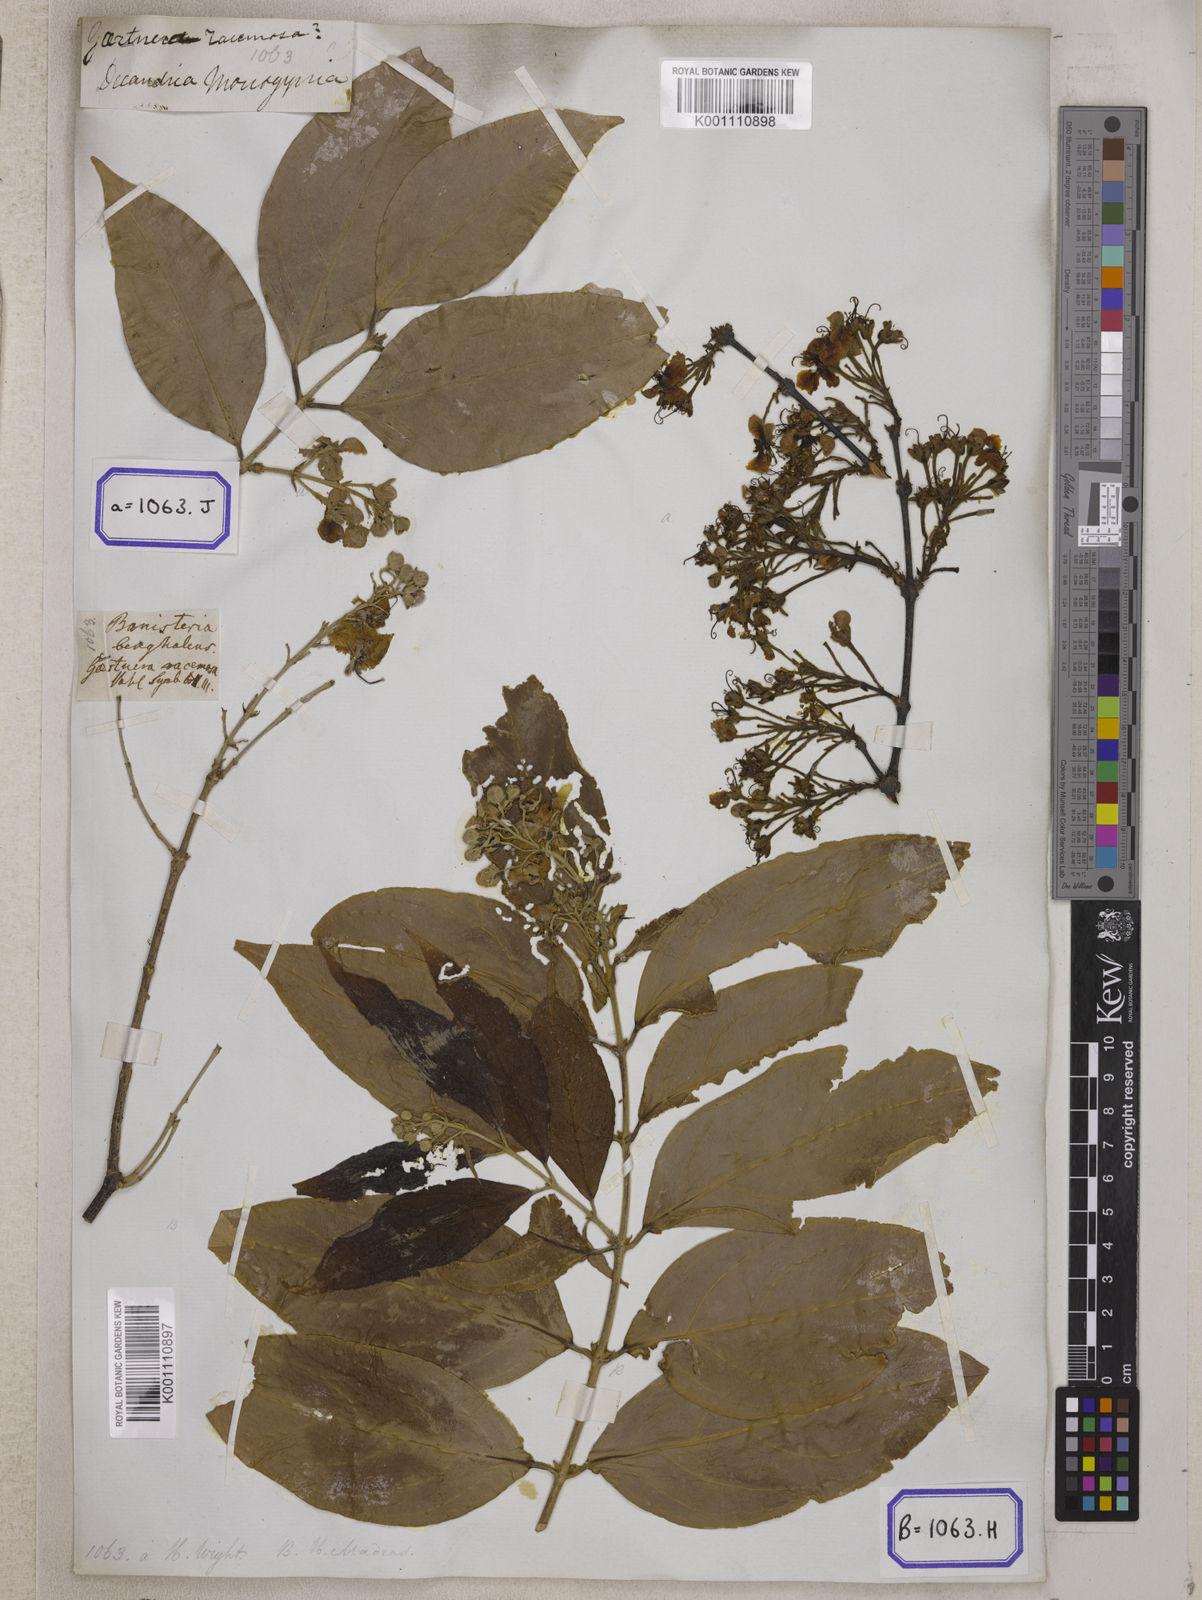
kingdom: Plantae
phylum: Tracheophyta
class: Magnoliopsida
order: Malpighiales
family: Malpighiaceae
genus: Hiptage
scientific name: Hiptage benghalensis
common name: Hiptage
